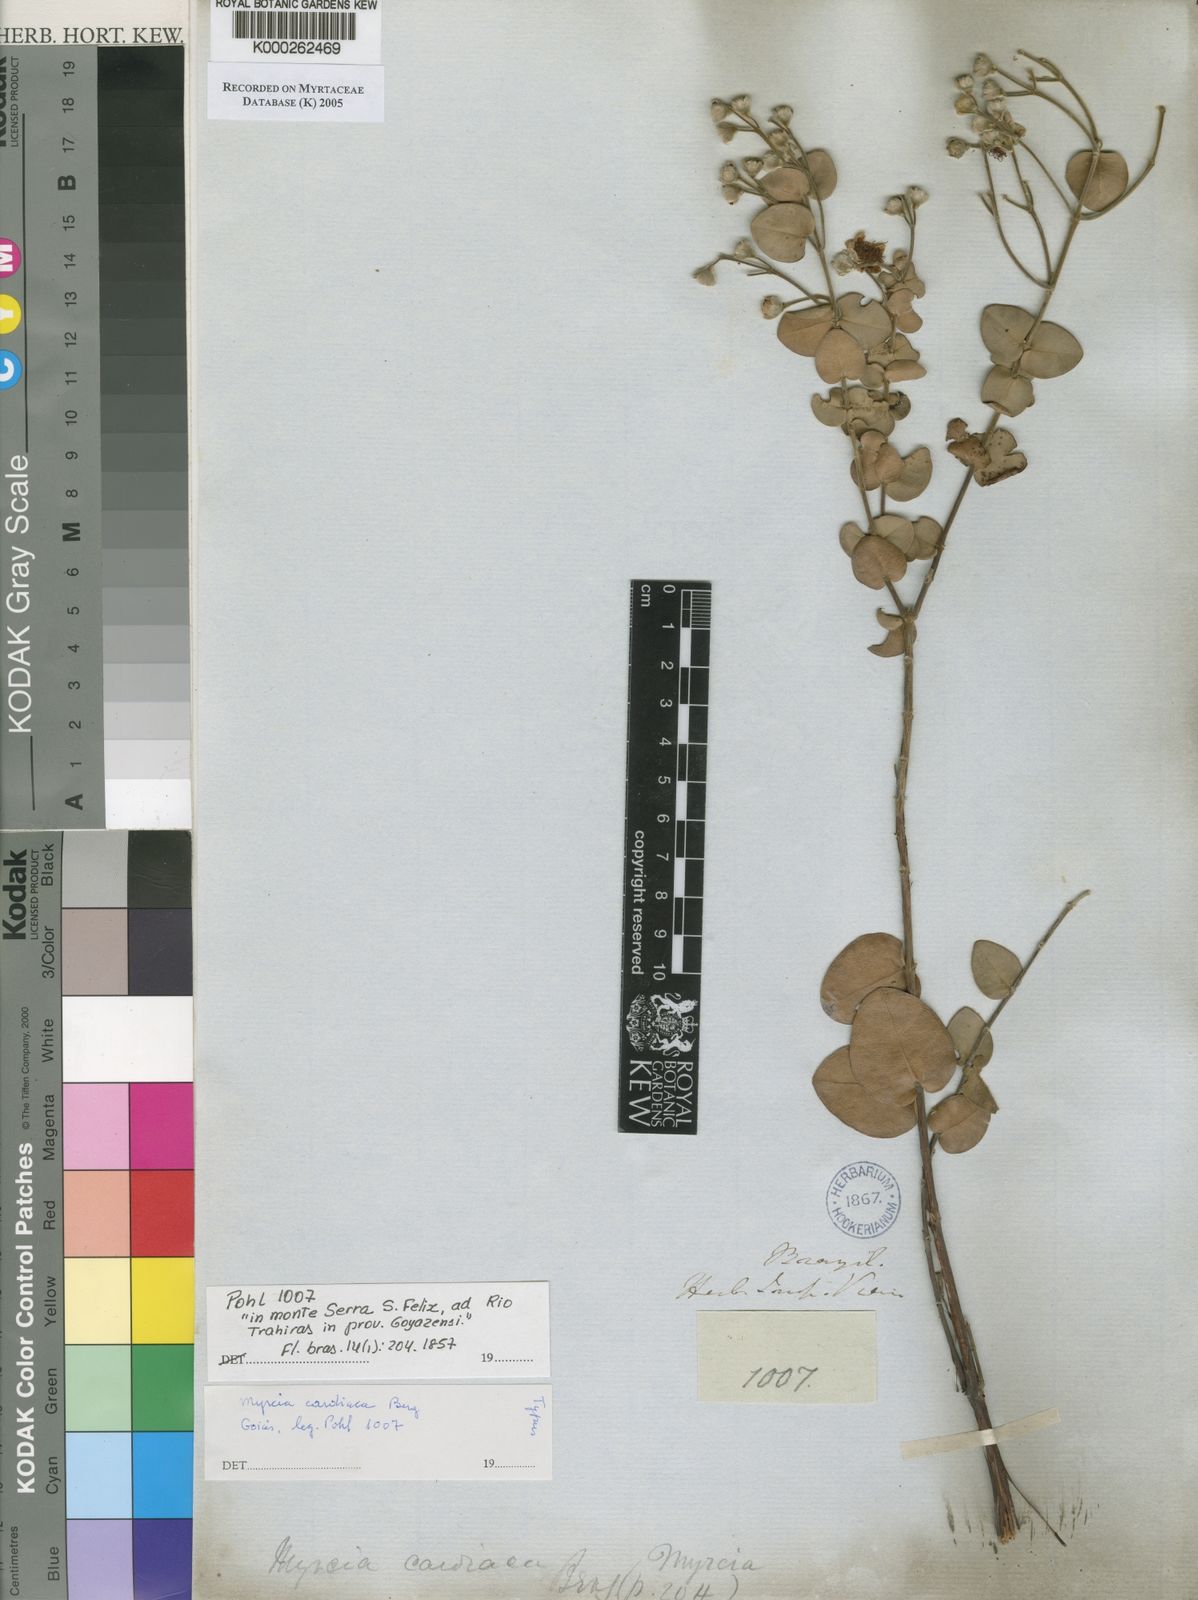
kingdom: Plantae
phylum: Tracheophyta
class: Magnoliopsida
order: Myrtales
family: Myrtaceae
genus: Myrcia
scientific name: Myrcia cardiaca
